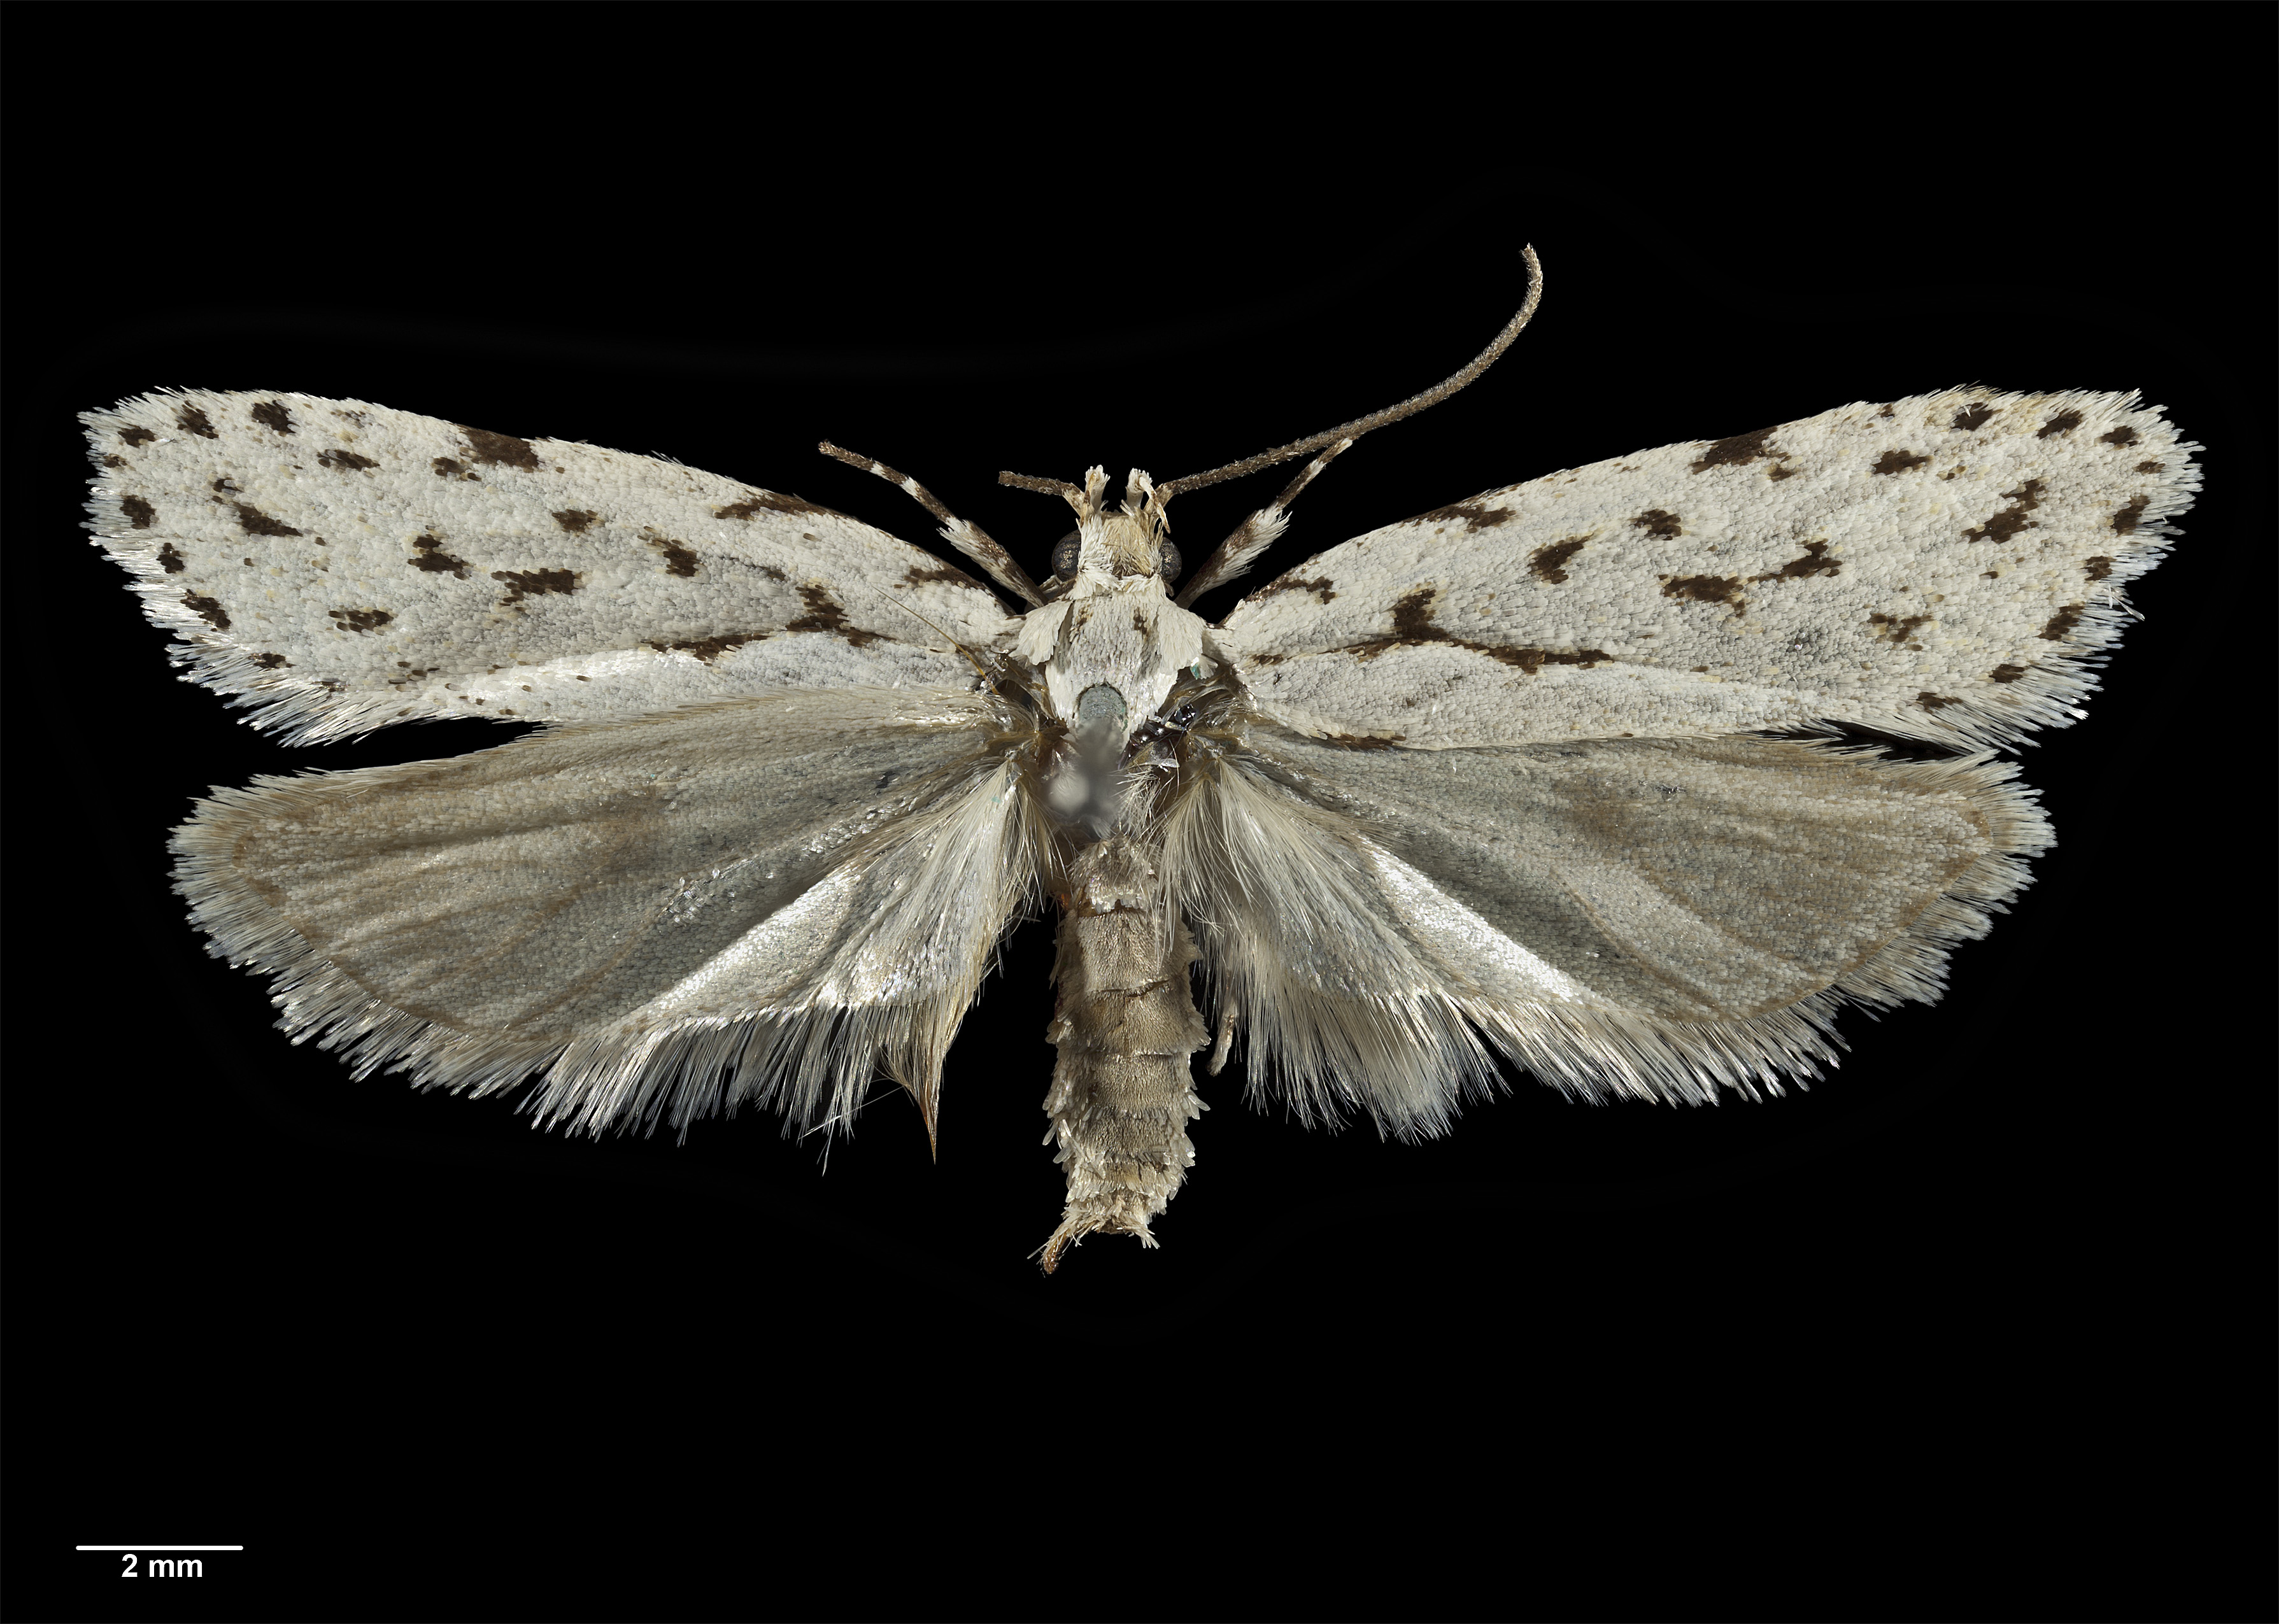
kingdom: Animalia
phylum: Arthropoda
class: Insecta
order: Lepidoptera
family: Oecophoridae
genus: Izatha
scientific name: Izatha heroica
